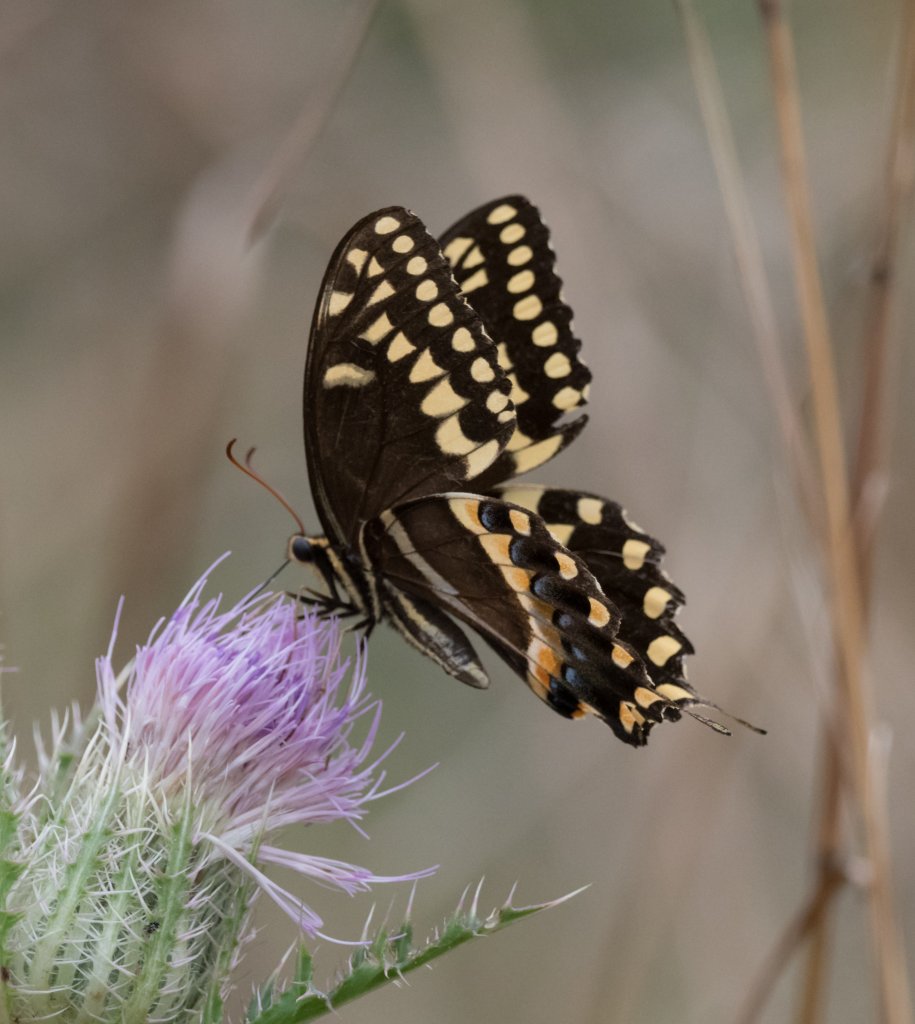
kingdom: Animalia
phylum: Arthropoda
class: Insecta
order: Lepidoptera
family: Papilionidae
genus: Pterourus
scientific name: Pterourus palamedes
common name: Palamedes Swallowtail
